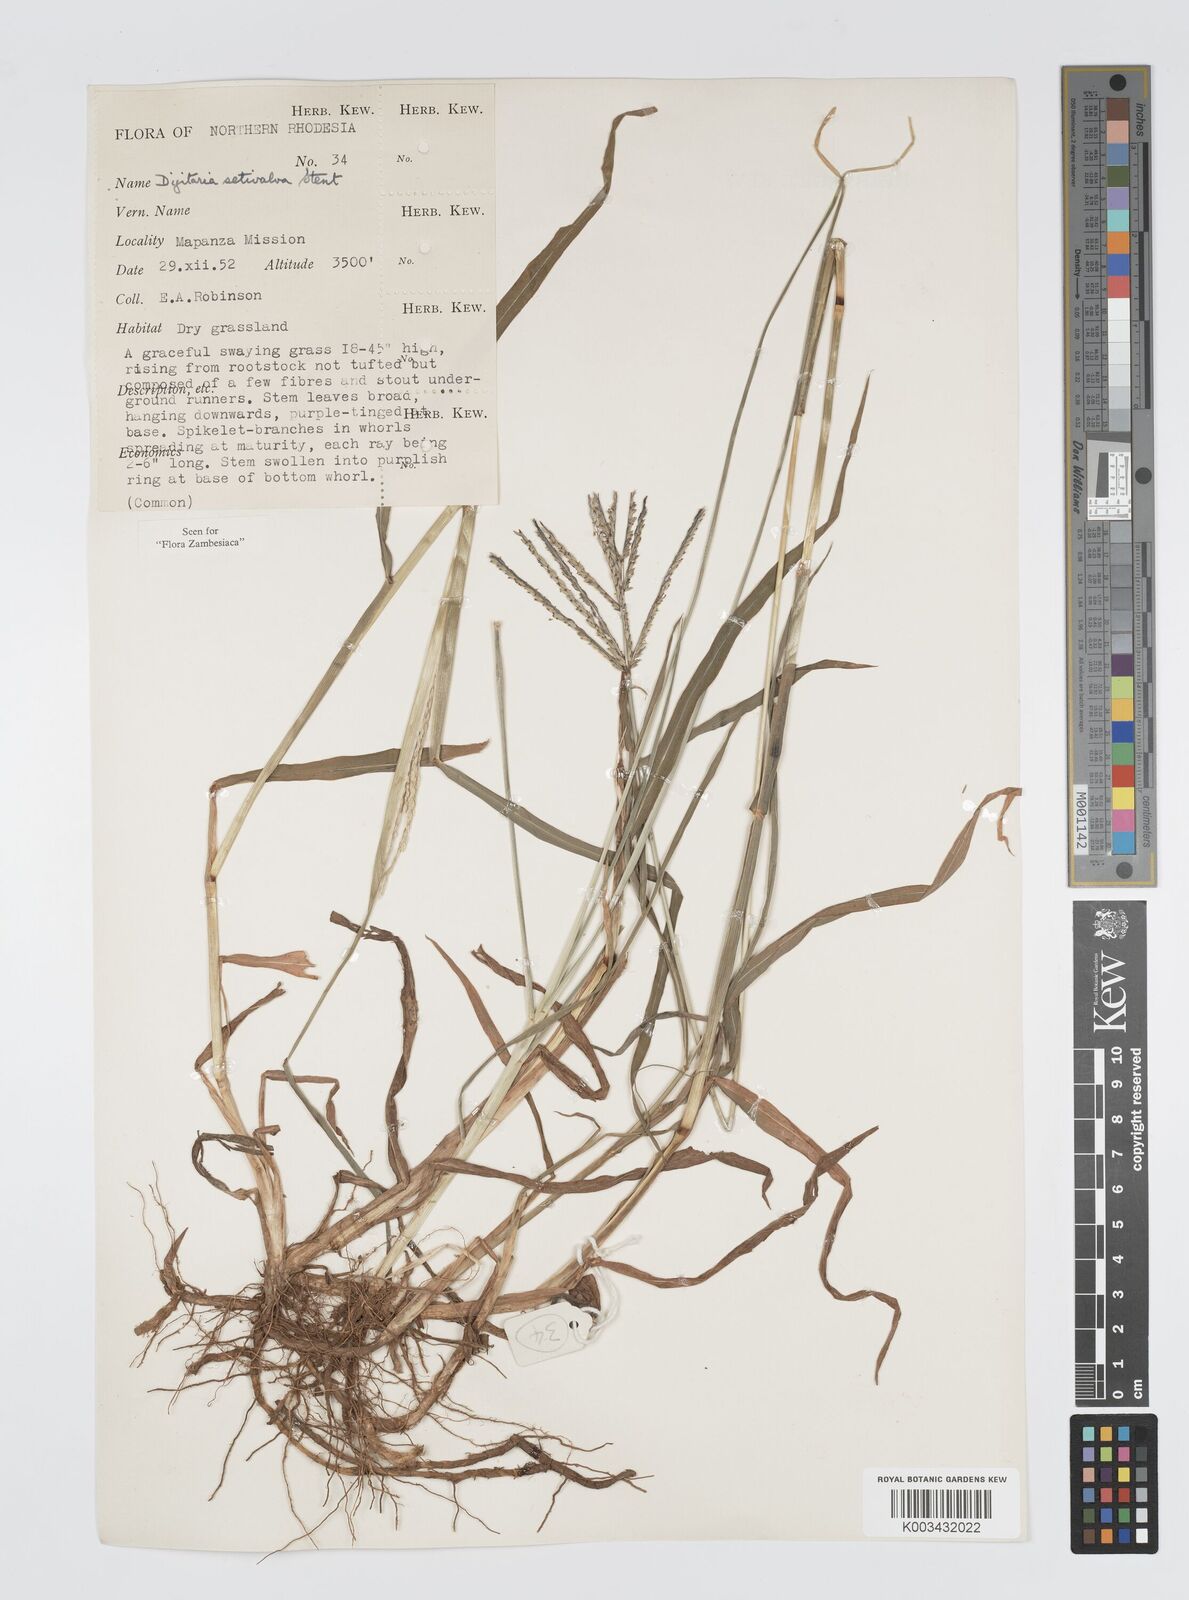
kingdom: Plantae
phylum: Tracheophyta
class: Liliopsida
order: Poales
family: Poaceae
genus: Digitaria
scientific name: Digitaria milanjiana
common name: Madagascar crabgrass
